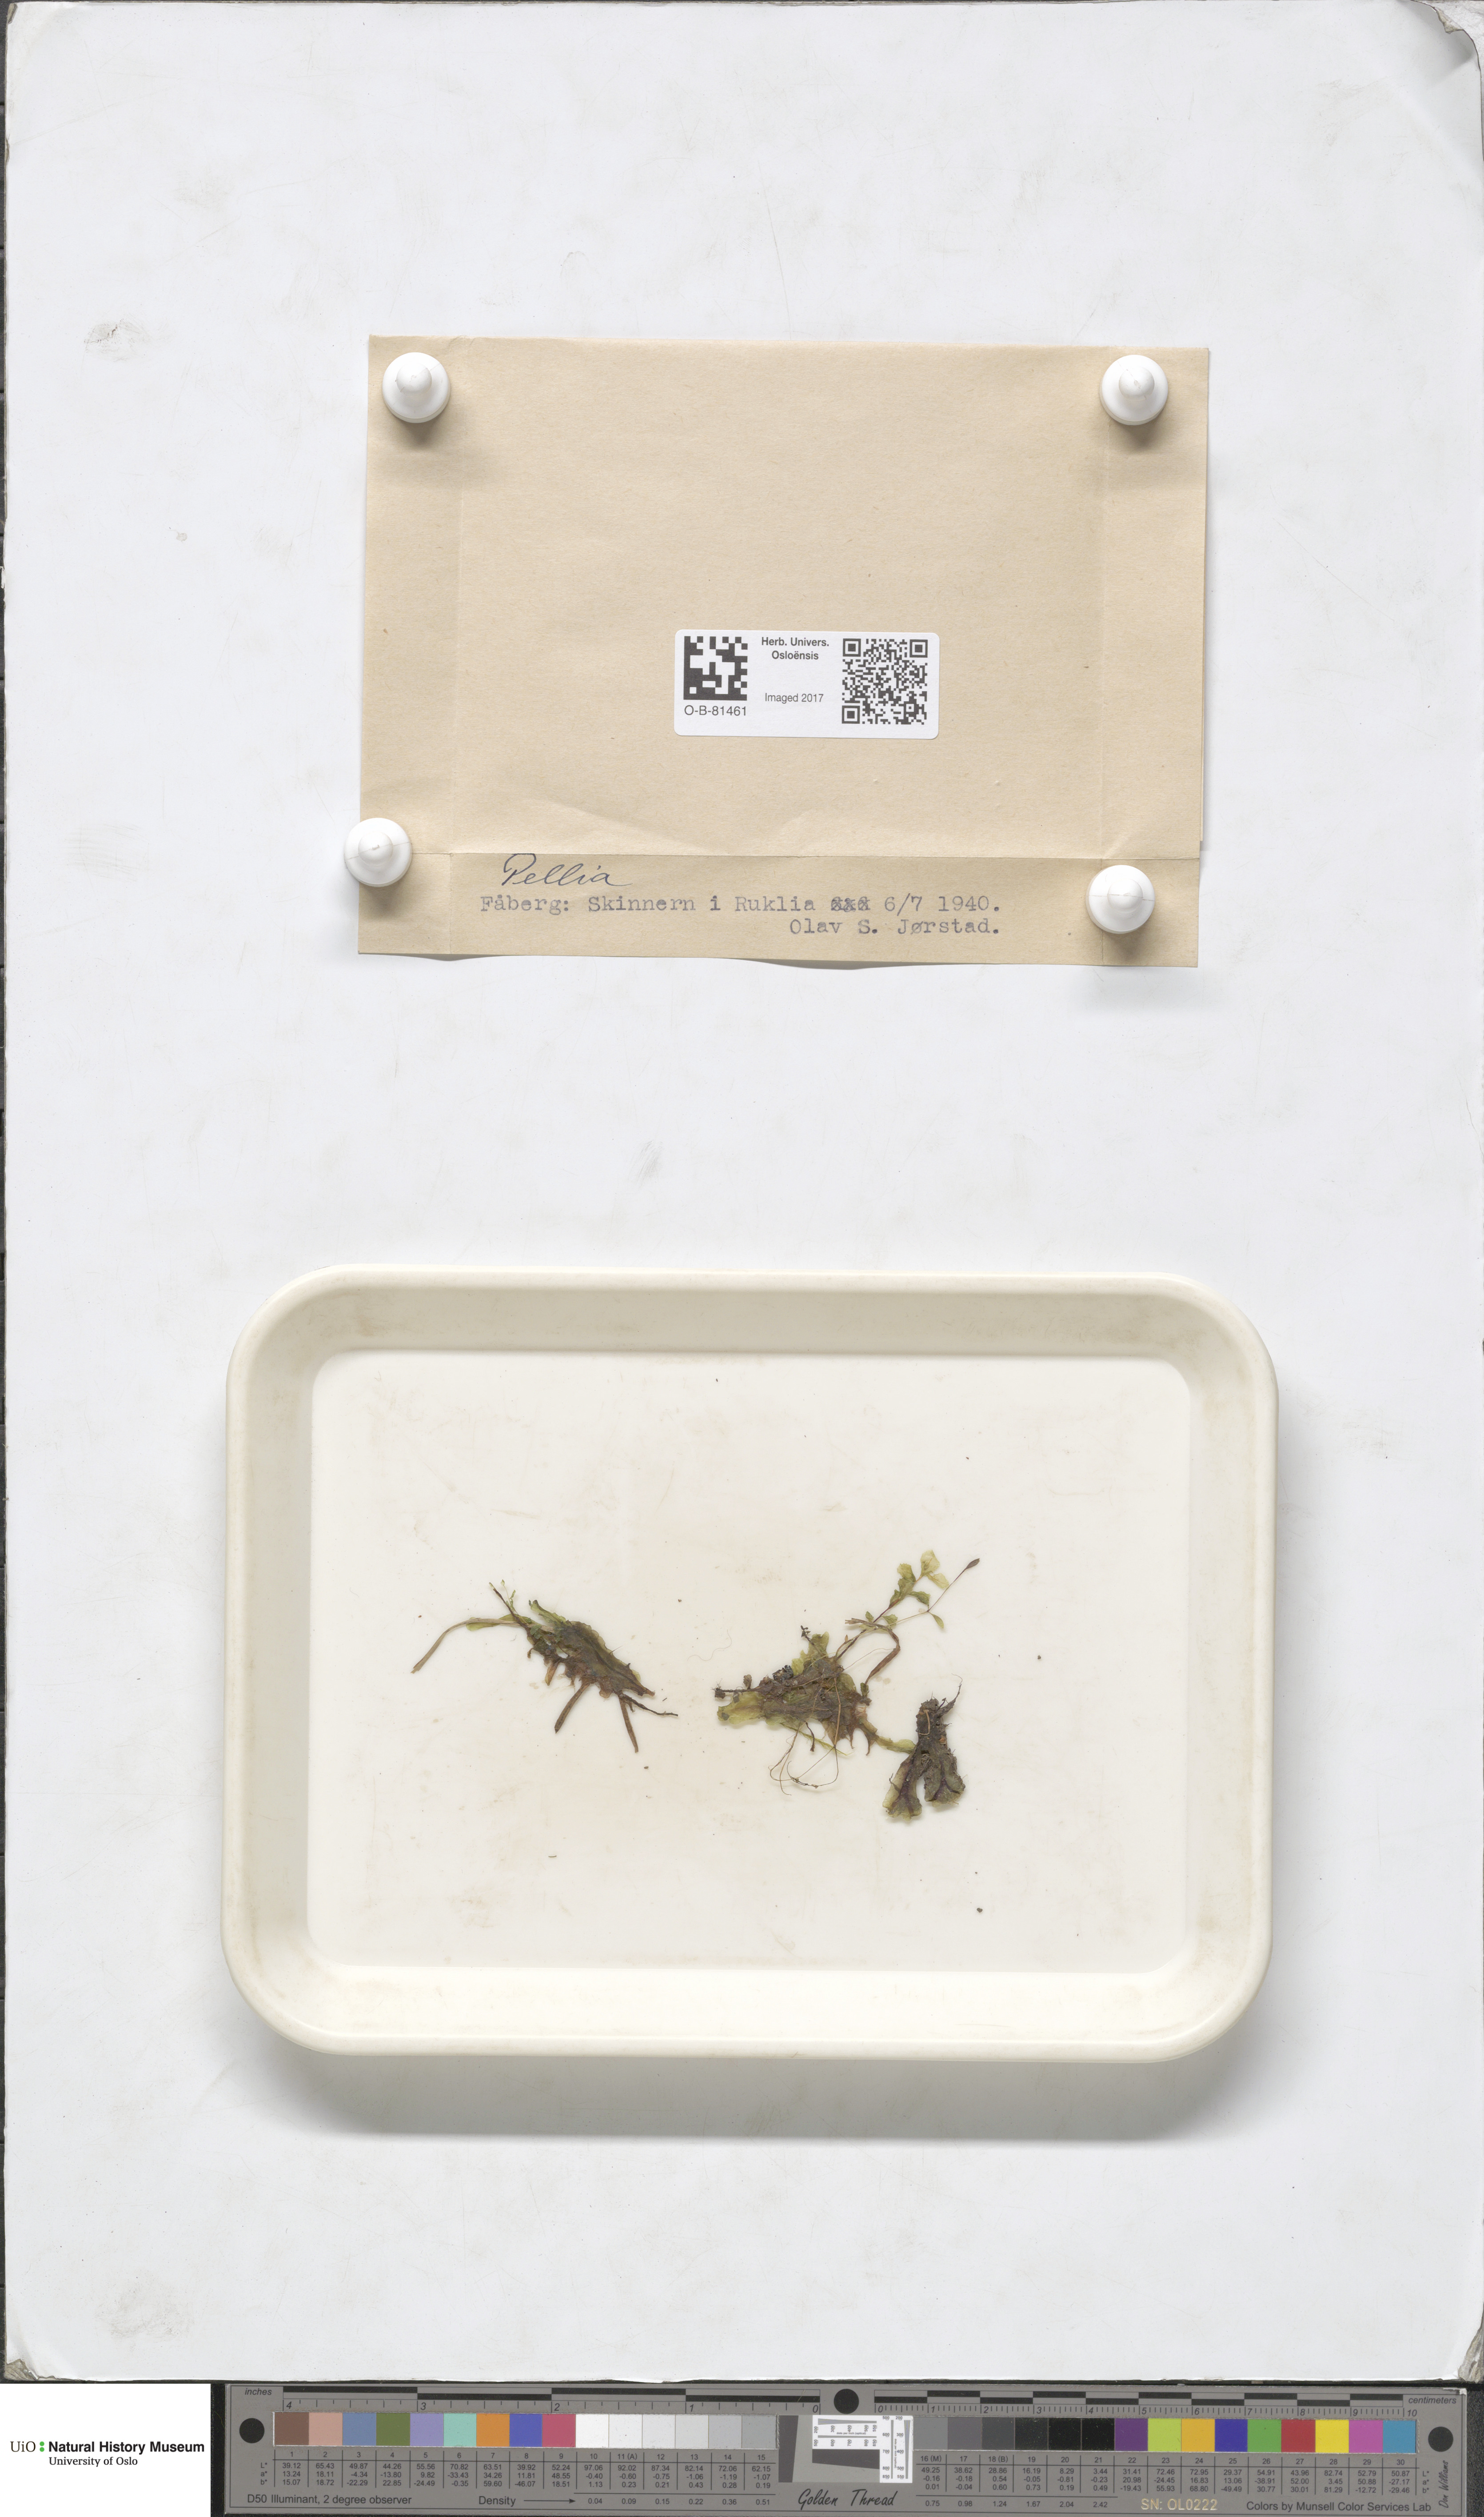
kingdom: Plantae
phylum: Marchantiophyta
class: Jungermanniopsida
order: Pelliales
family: Pelliaceae
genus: Pellia
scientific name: Pellia
